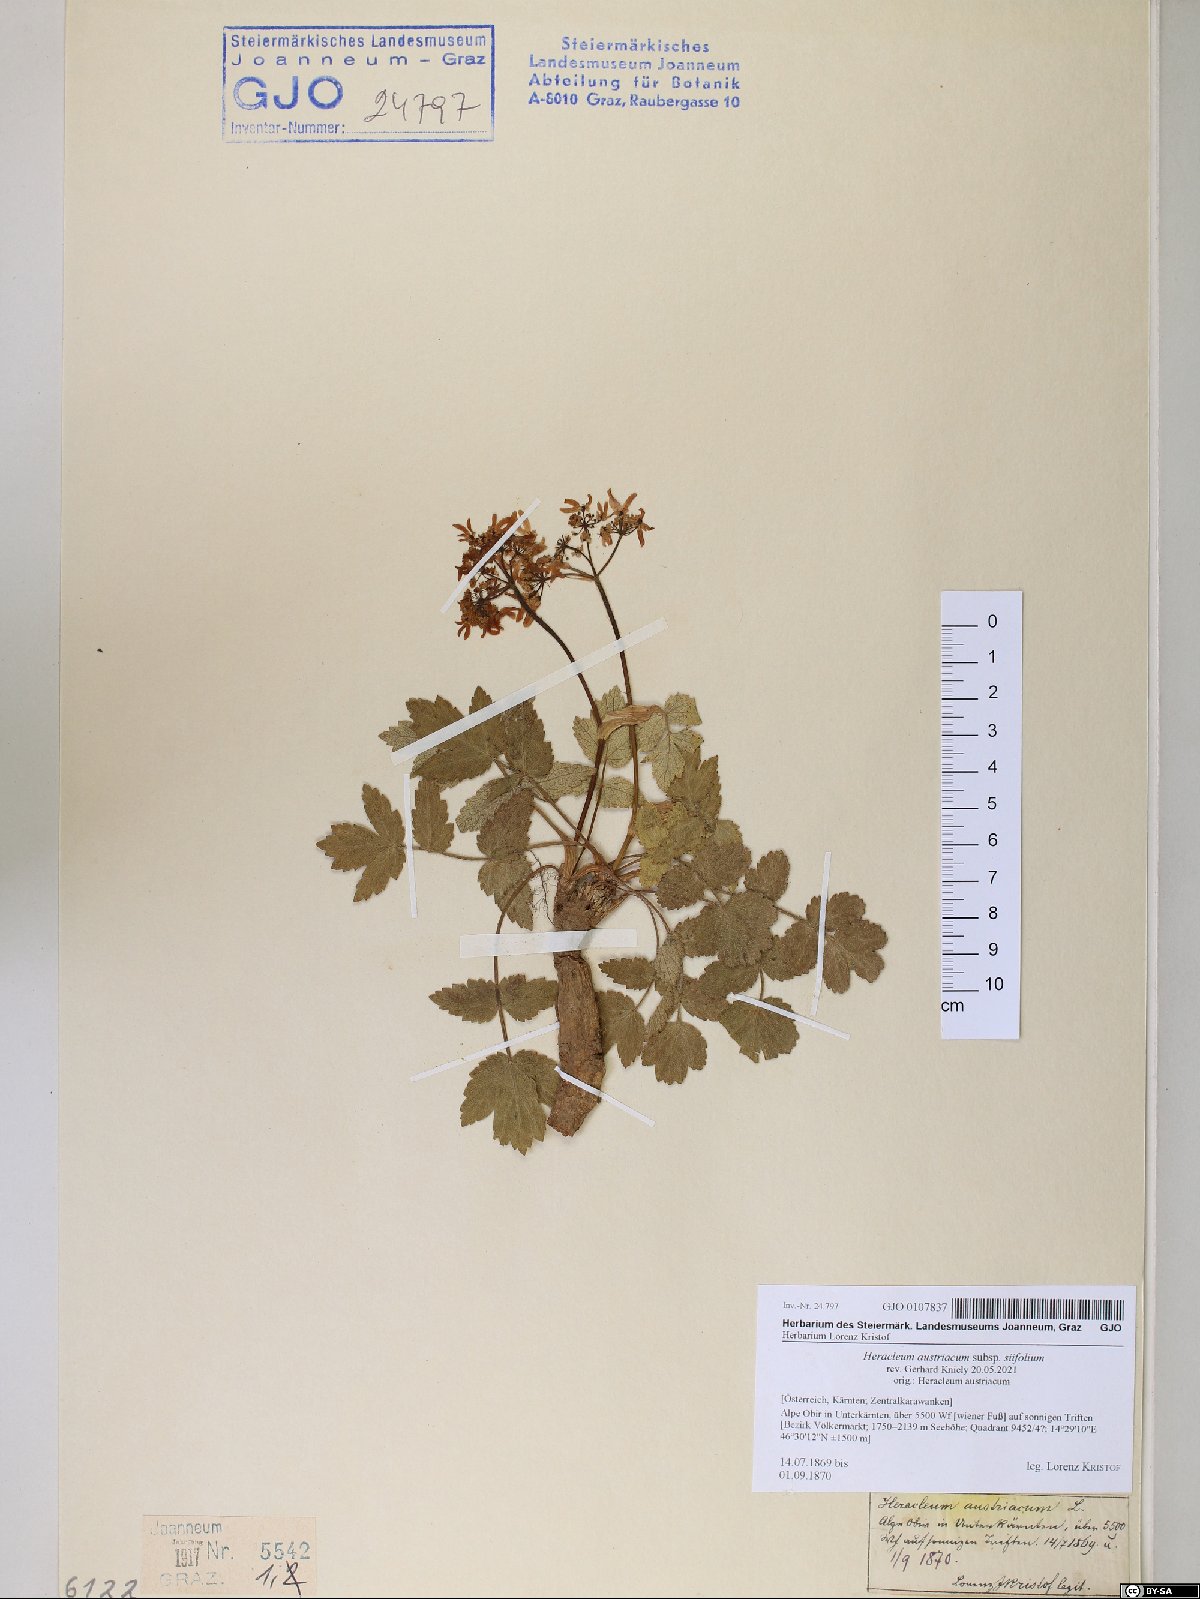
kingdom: Plantae
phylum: Tracheophyta
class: Magnoliopsida
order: Apiales
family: Apiaceae
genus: Heracleum
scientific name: Heracleum austriacum
